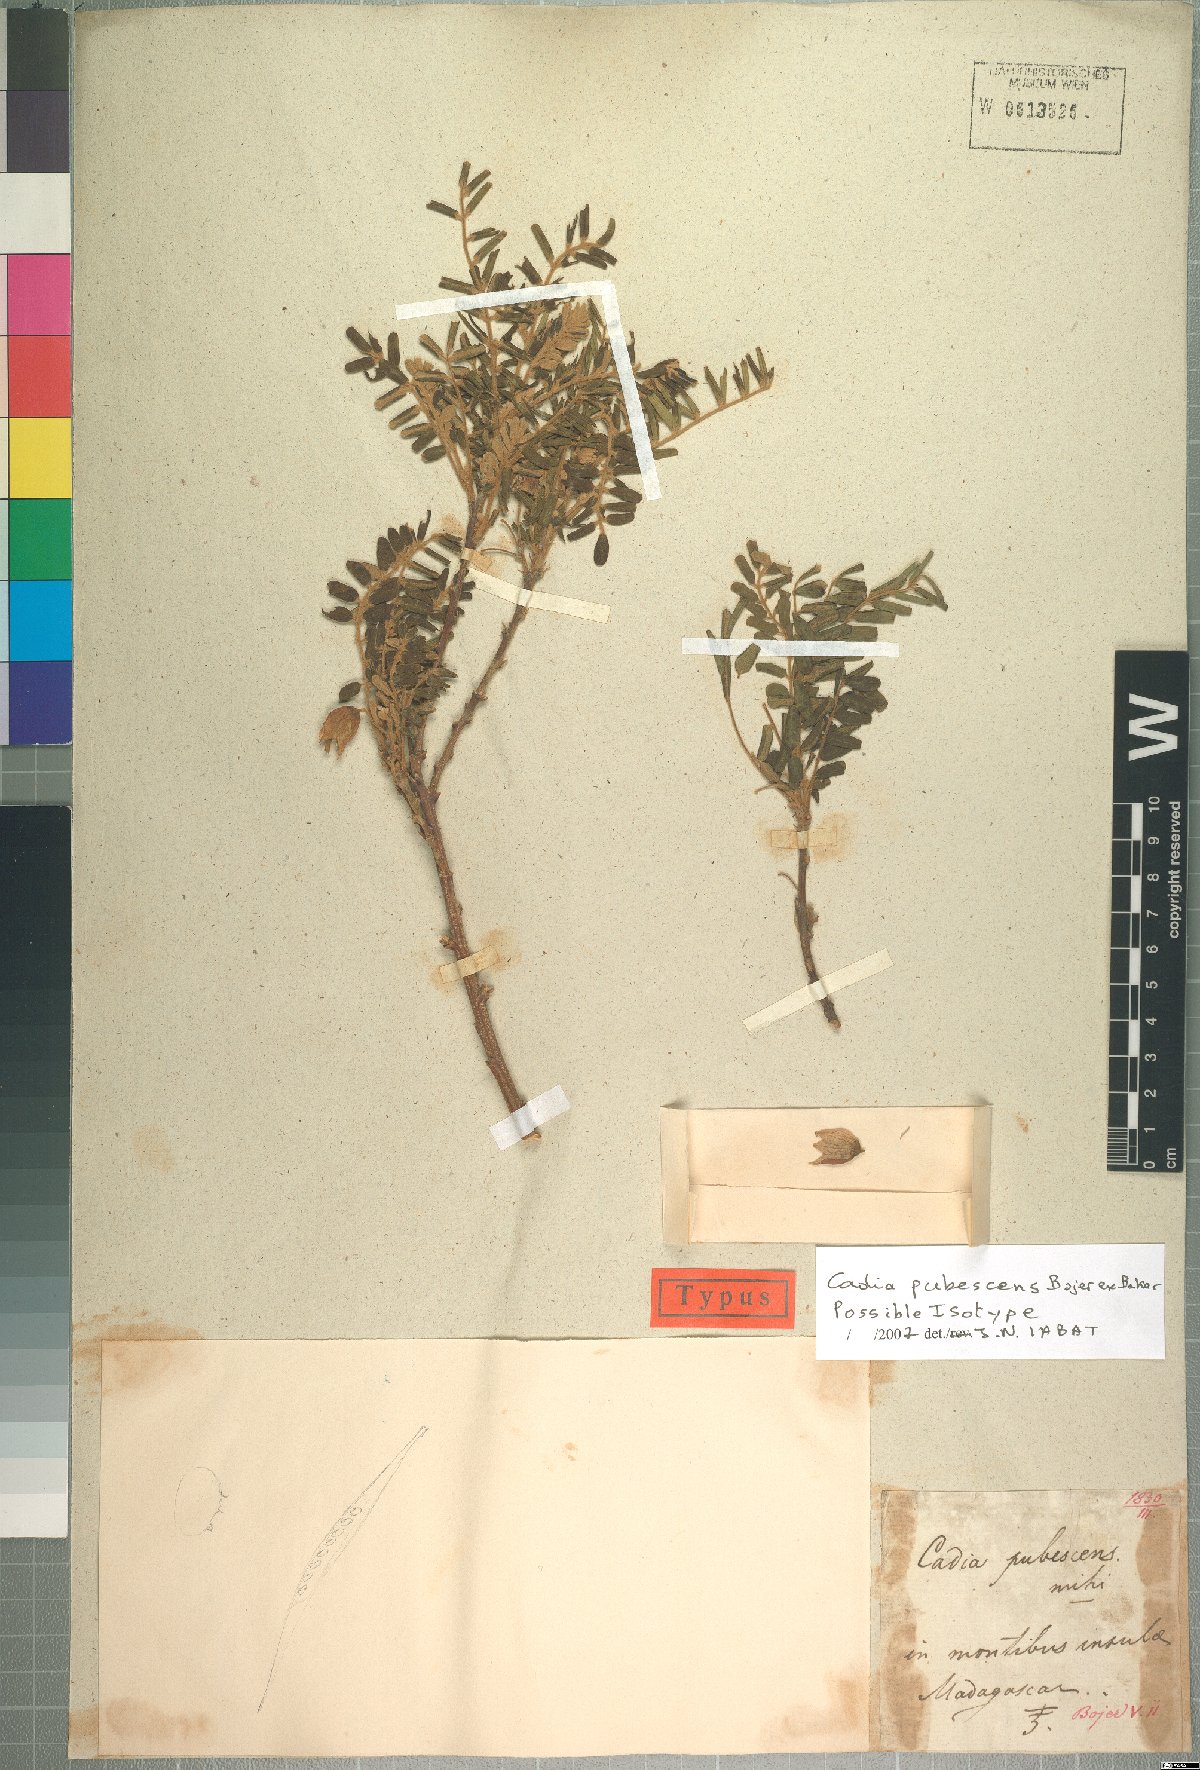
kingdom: Plantae
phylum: Tracheophyta
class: Magnoliopsida
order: Fabales
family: Fabaceae
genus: Cadia
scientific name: Cadia pubescens
